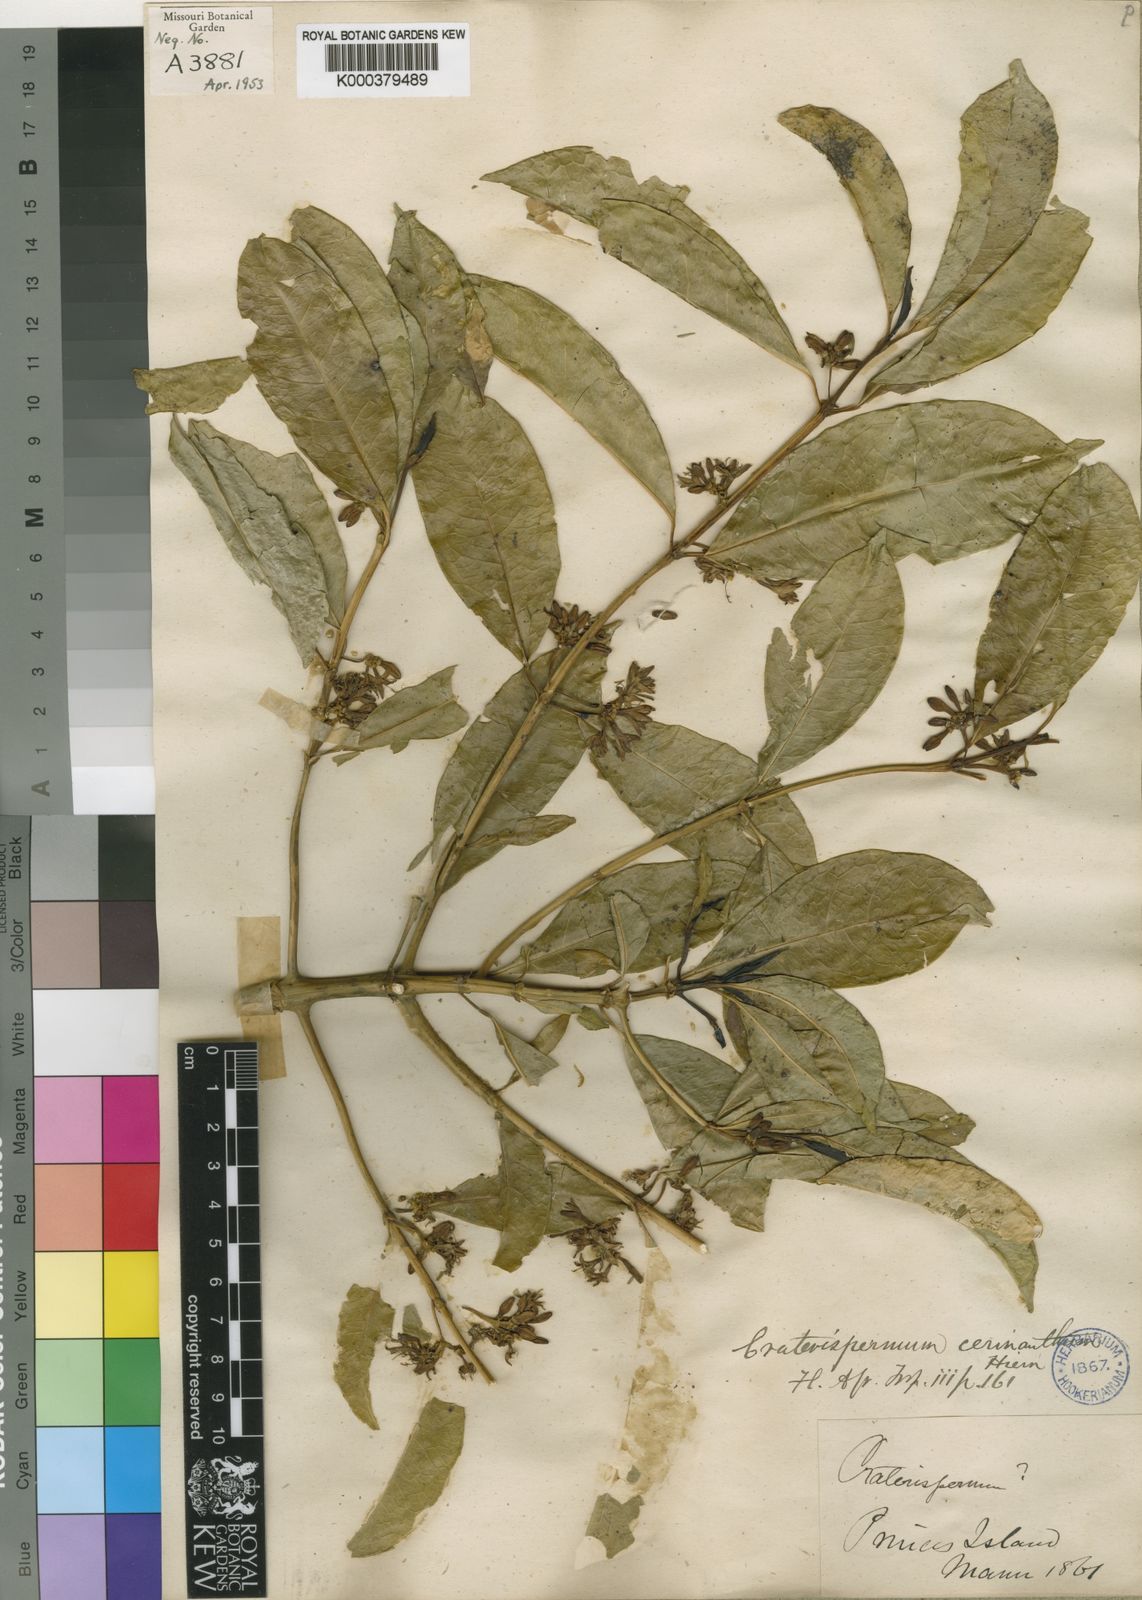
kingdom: Plantae
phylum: Tracheophyta
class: Magnoliopsida
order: Gentianales
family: Rubiaceae
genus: Craterispermum
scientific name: Craterispermum cerinanthum
